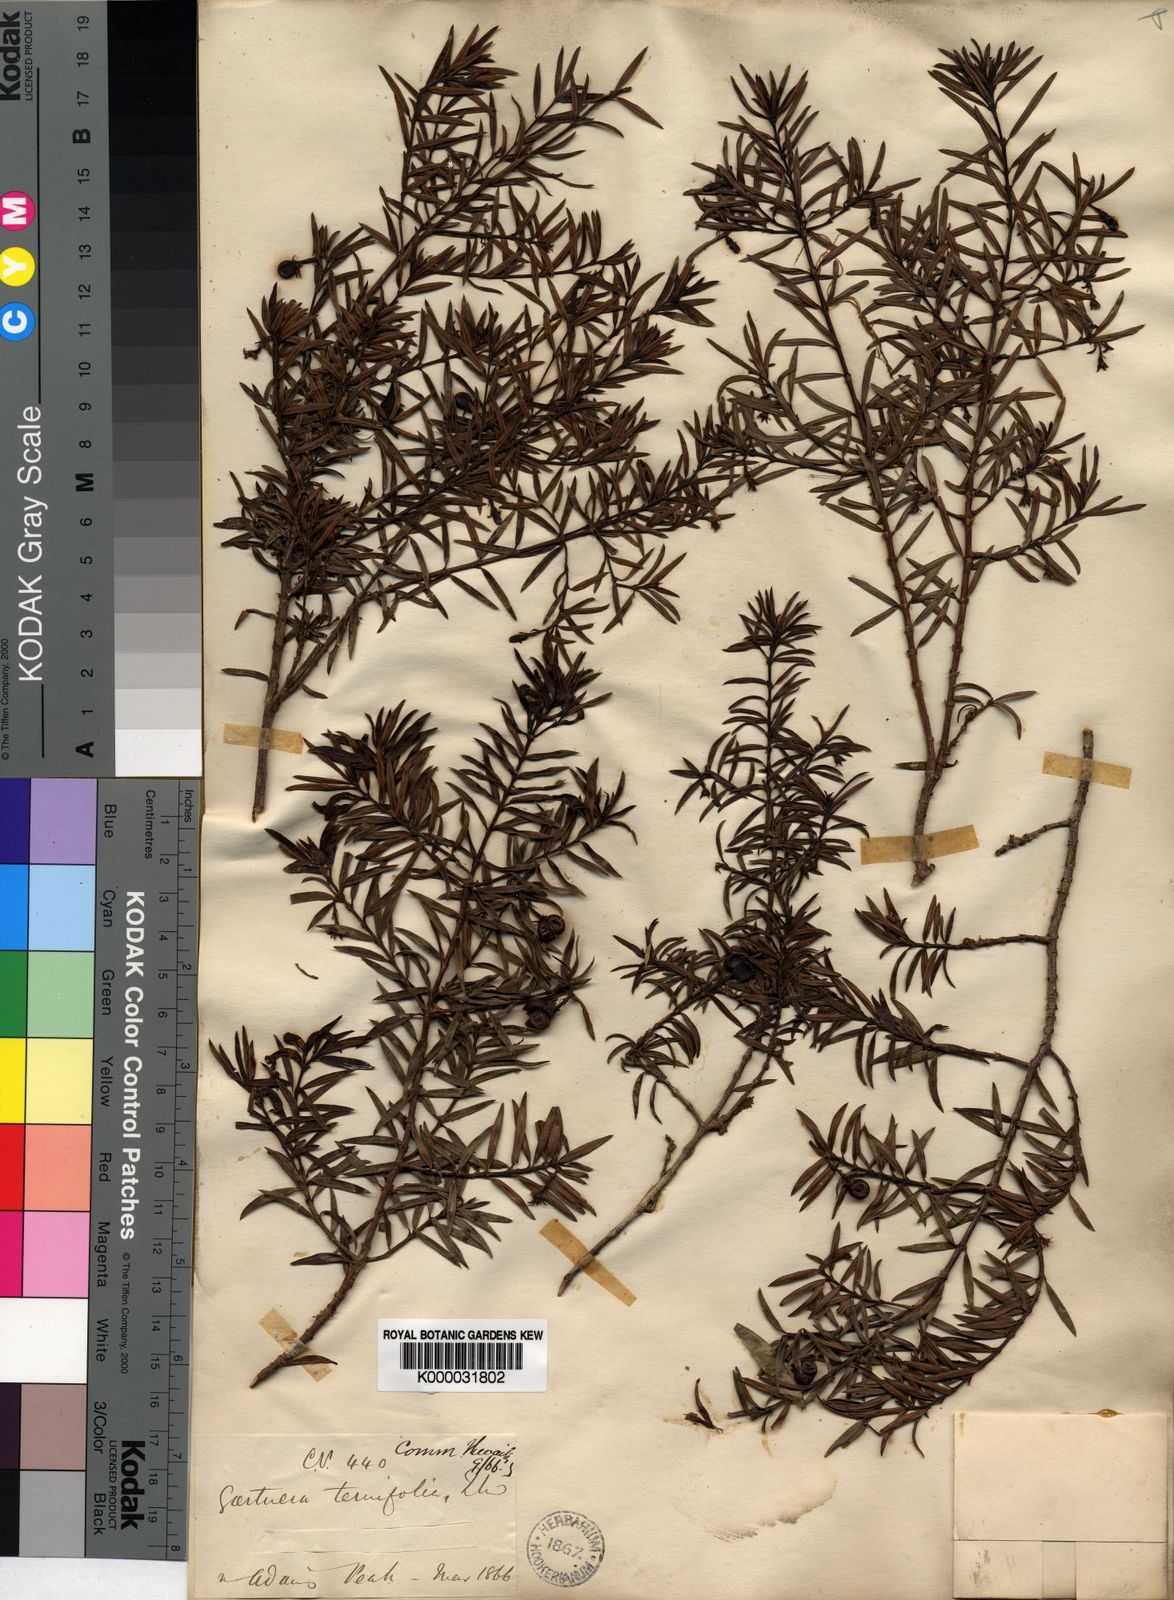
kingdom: Plantae
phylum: Tracheophyta
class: Magnoliopsida
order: Gentianales
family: Rubiaceae
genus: Gaertnera
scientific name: Gaertnera ternifolia
